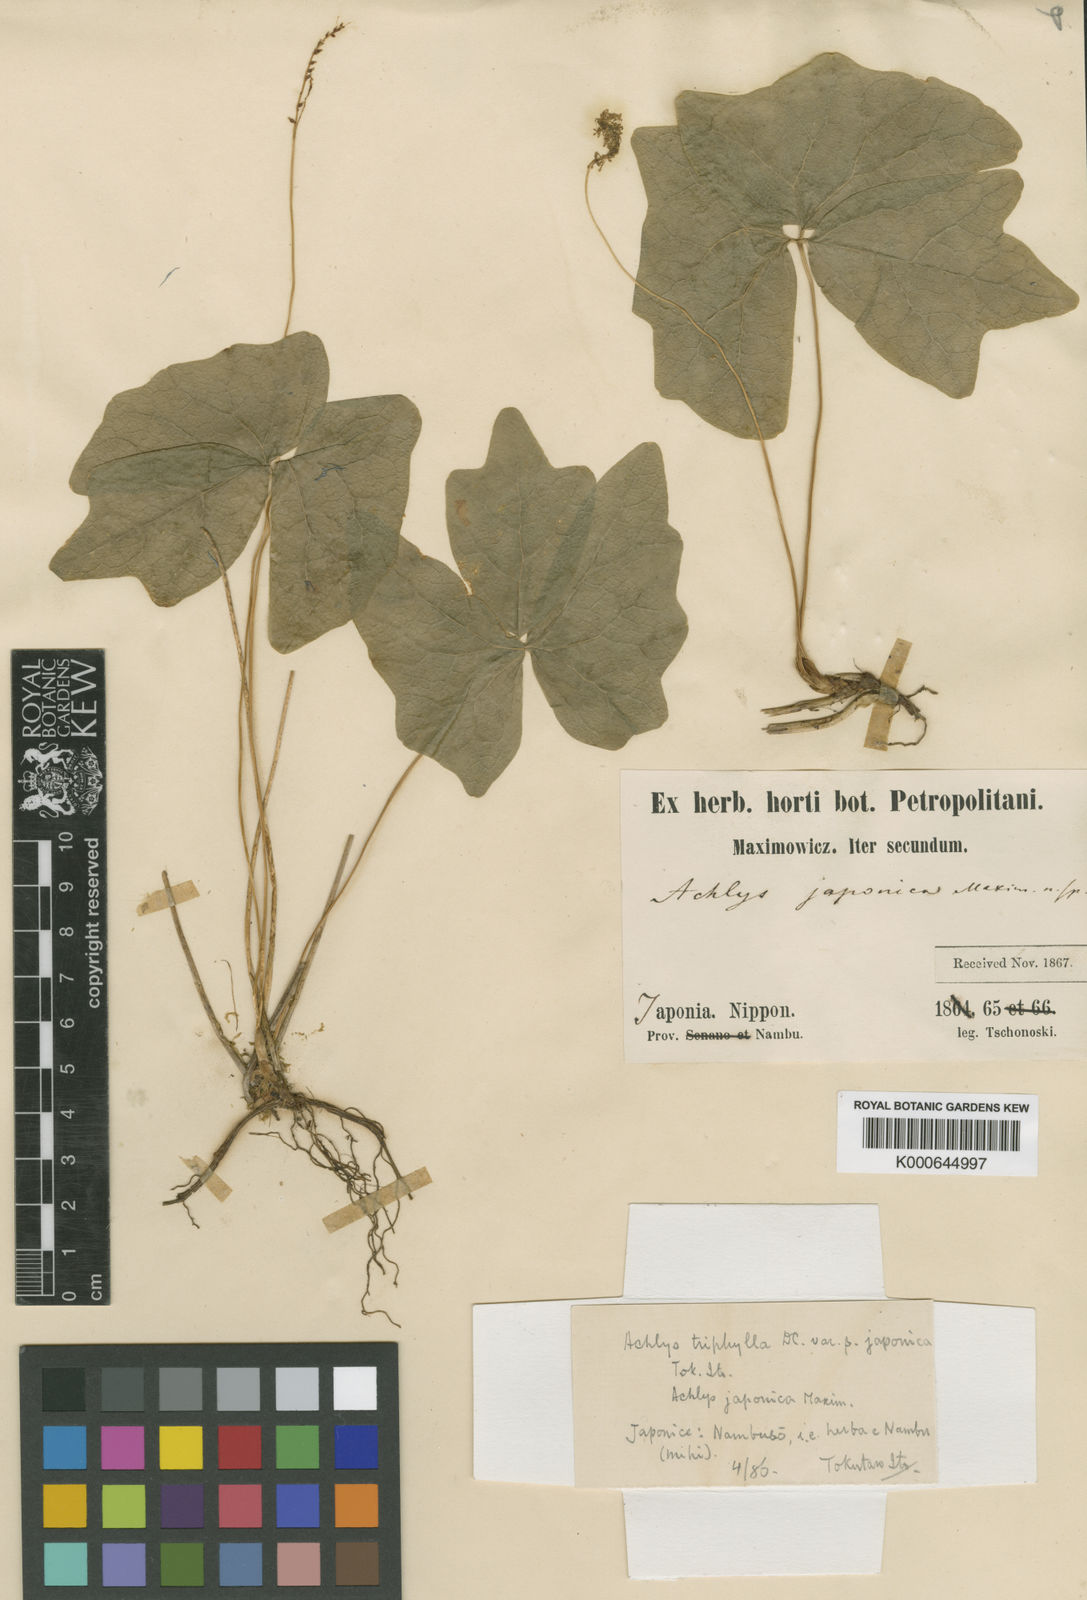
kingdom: Plantae
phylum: Tracheophyta
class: Magnoliopsida
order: Ranunculales
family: Berberidaceae
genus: Achlys
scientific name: Achlys triphylla
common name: Vanilla-leaf
